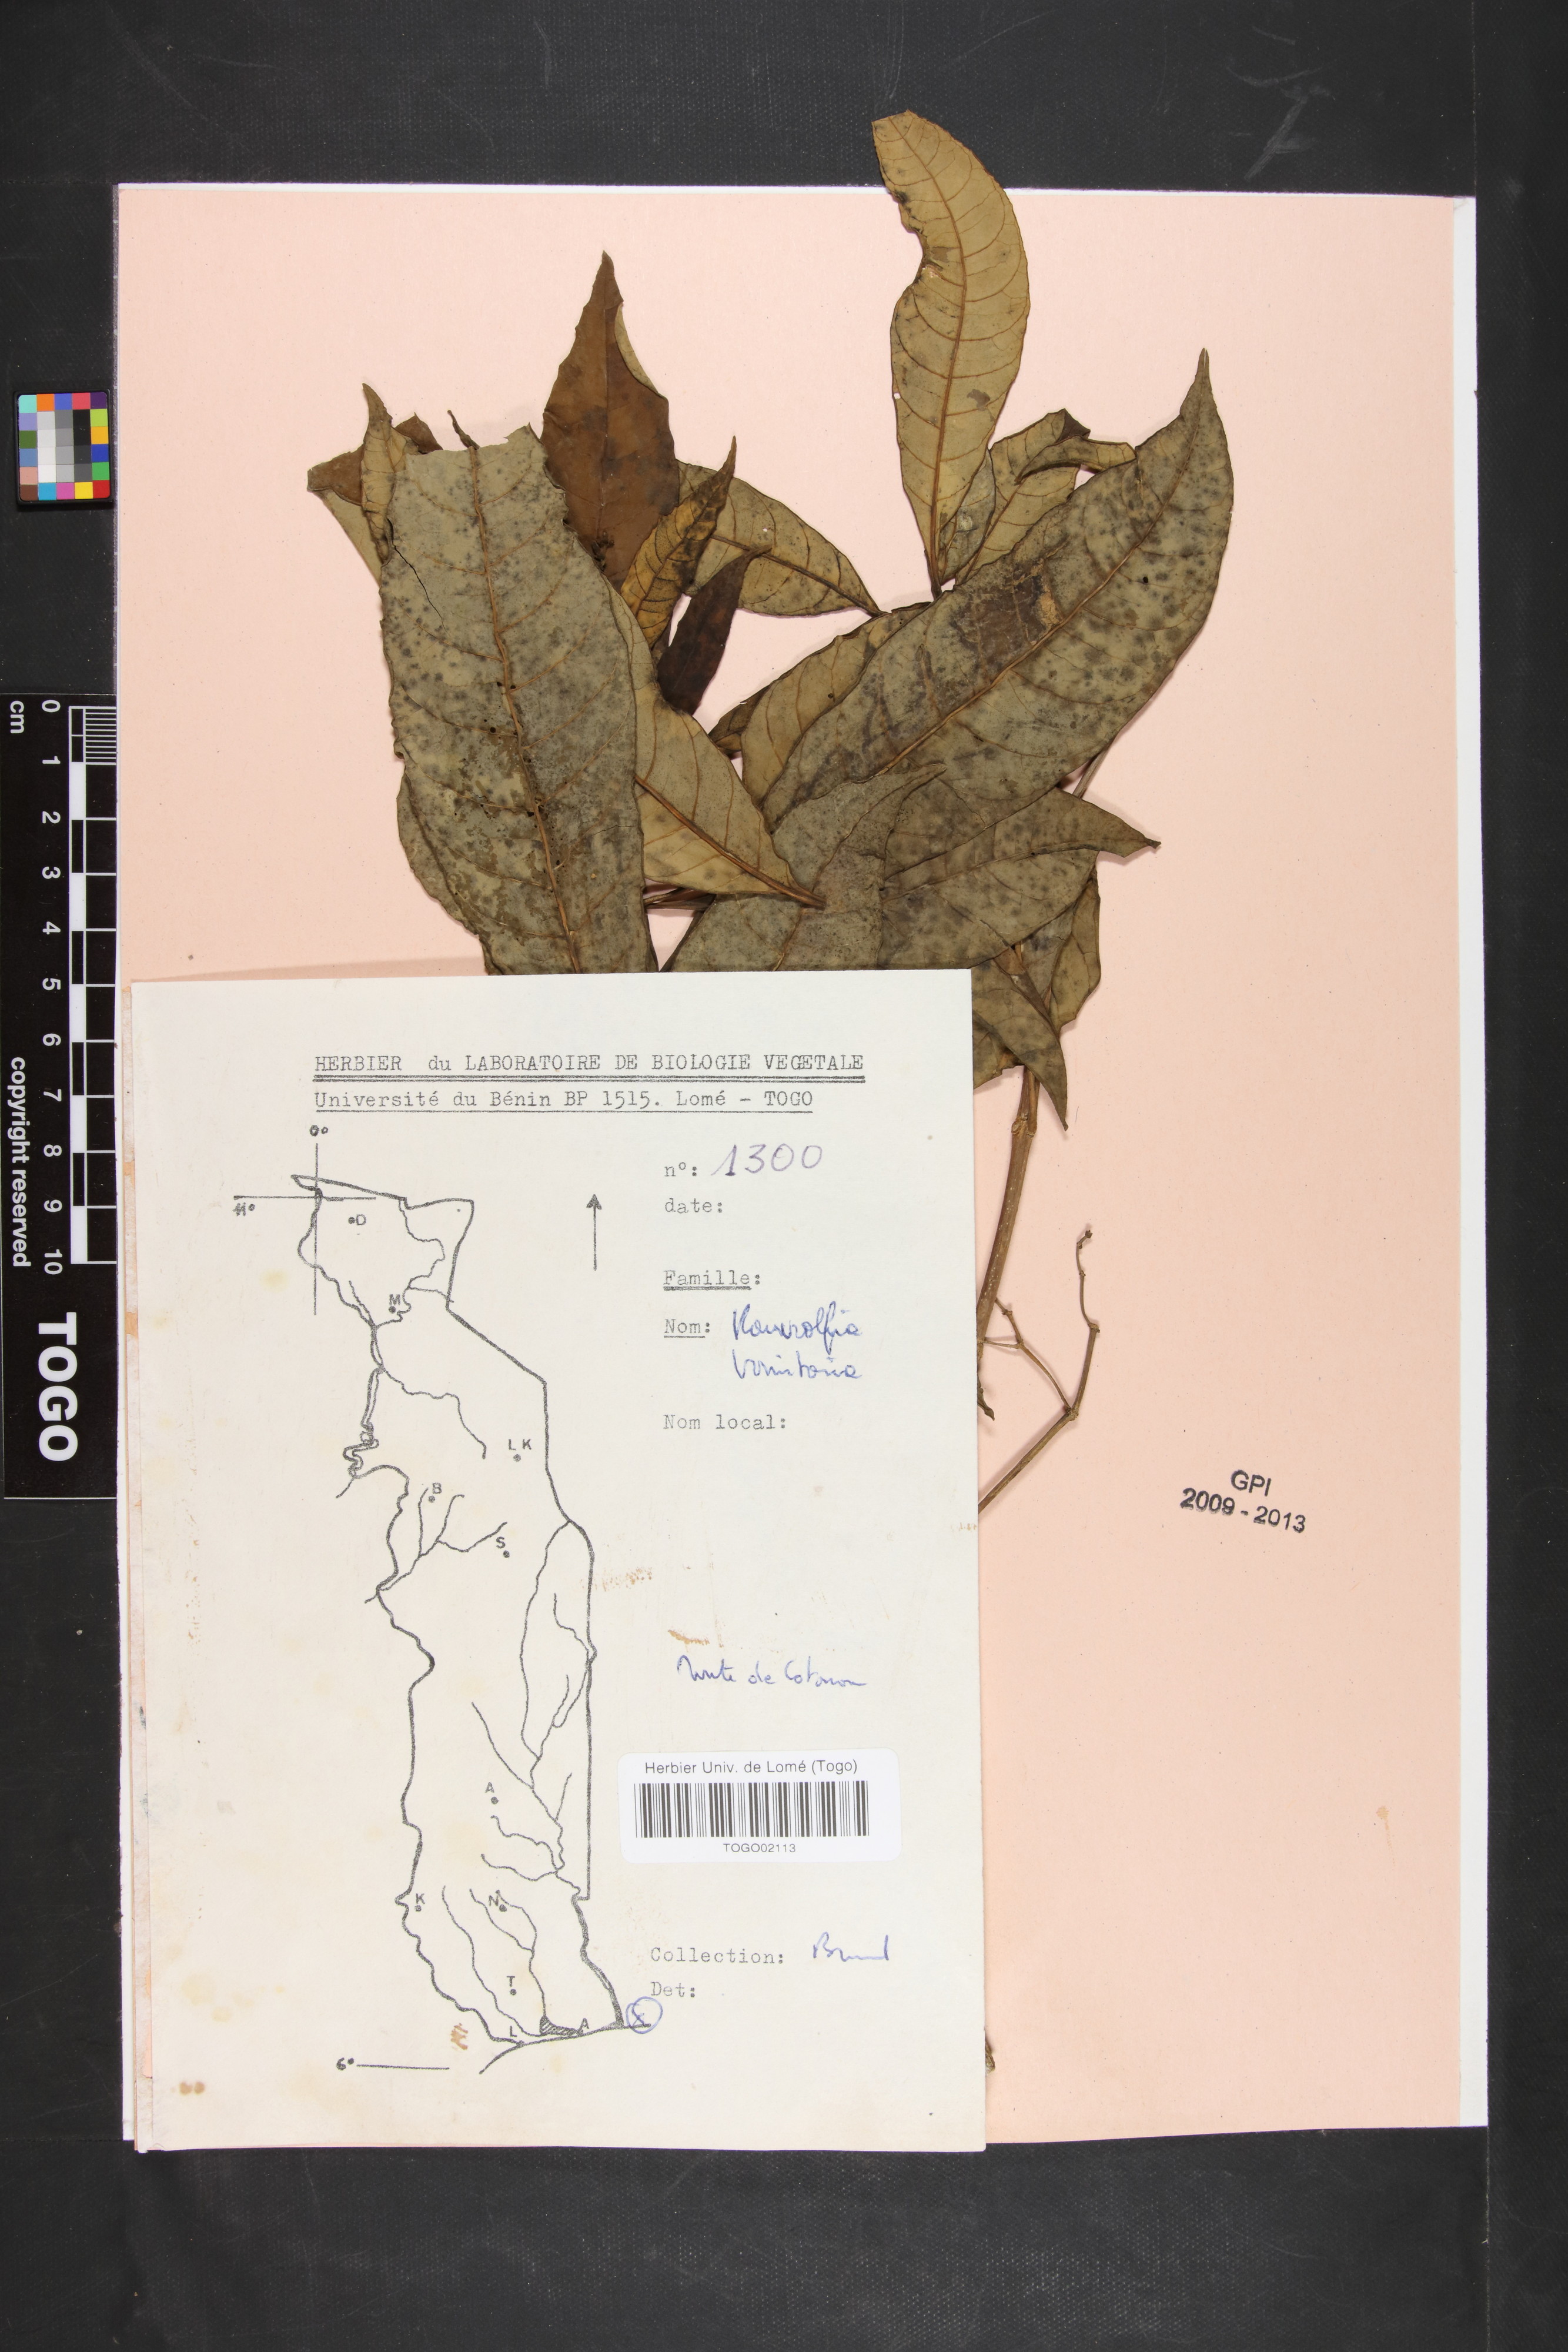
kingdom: Plantae
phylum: Tracheophyta
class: Magnoliopsida
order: Gentianales
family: Apocynaceae
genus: Rauvolfia
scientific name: Rauvolfia vomitoria
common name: Poison devil's-pepper
